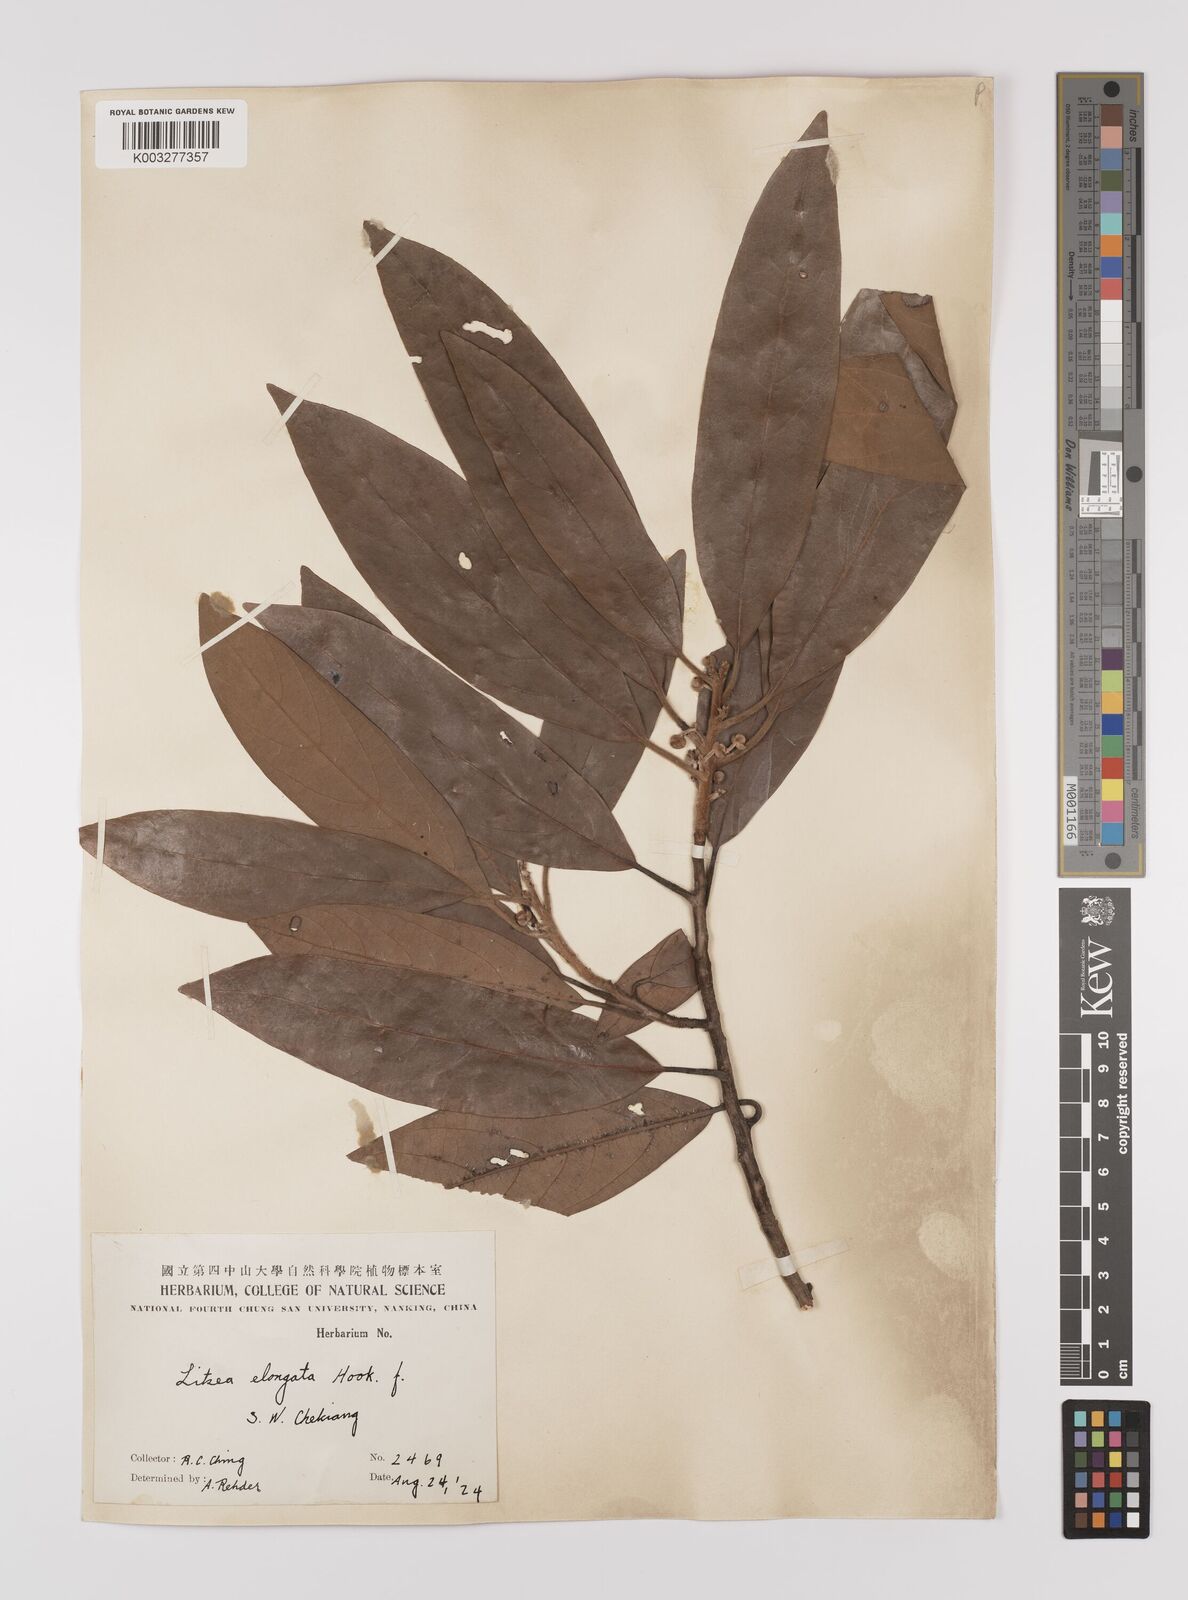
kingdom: Plantae
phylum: Tracheophyta
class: Magnoliopsida
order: Laurales
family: Lauraceae
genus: Litsea
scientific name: Litsea elongata
